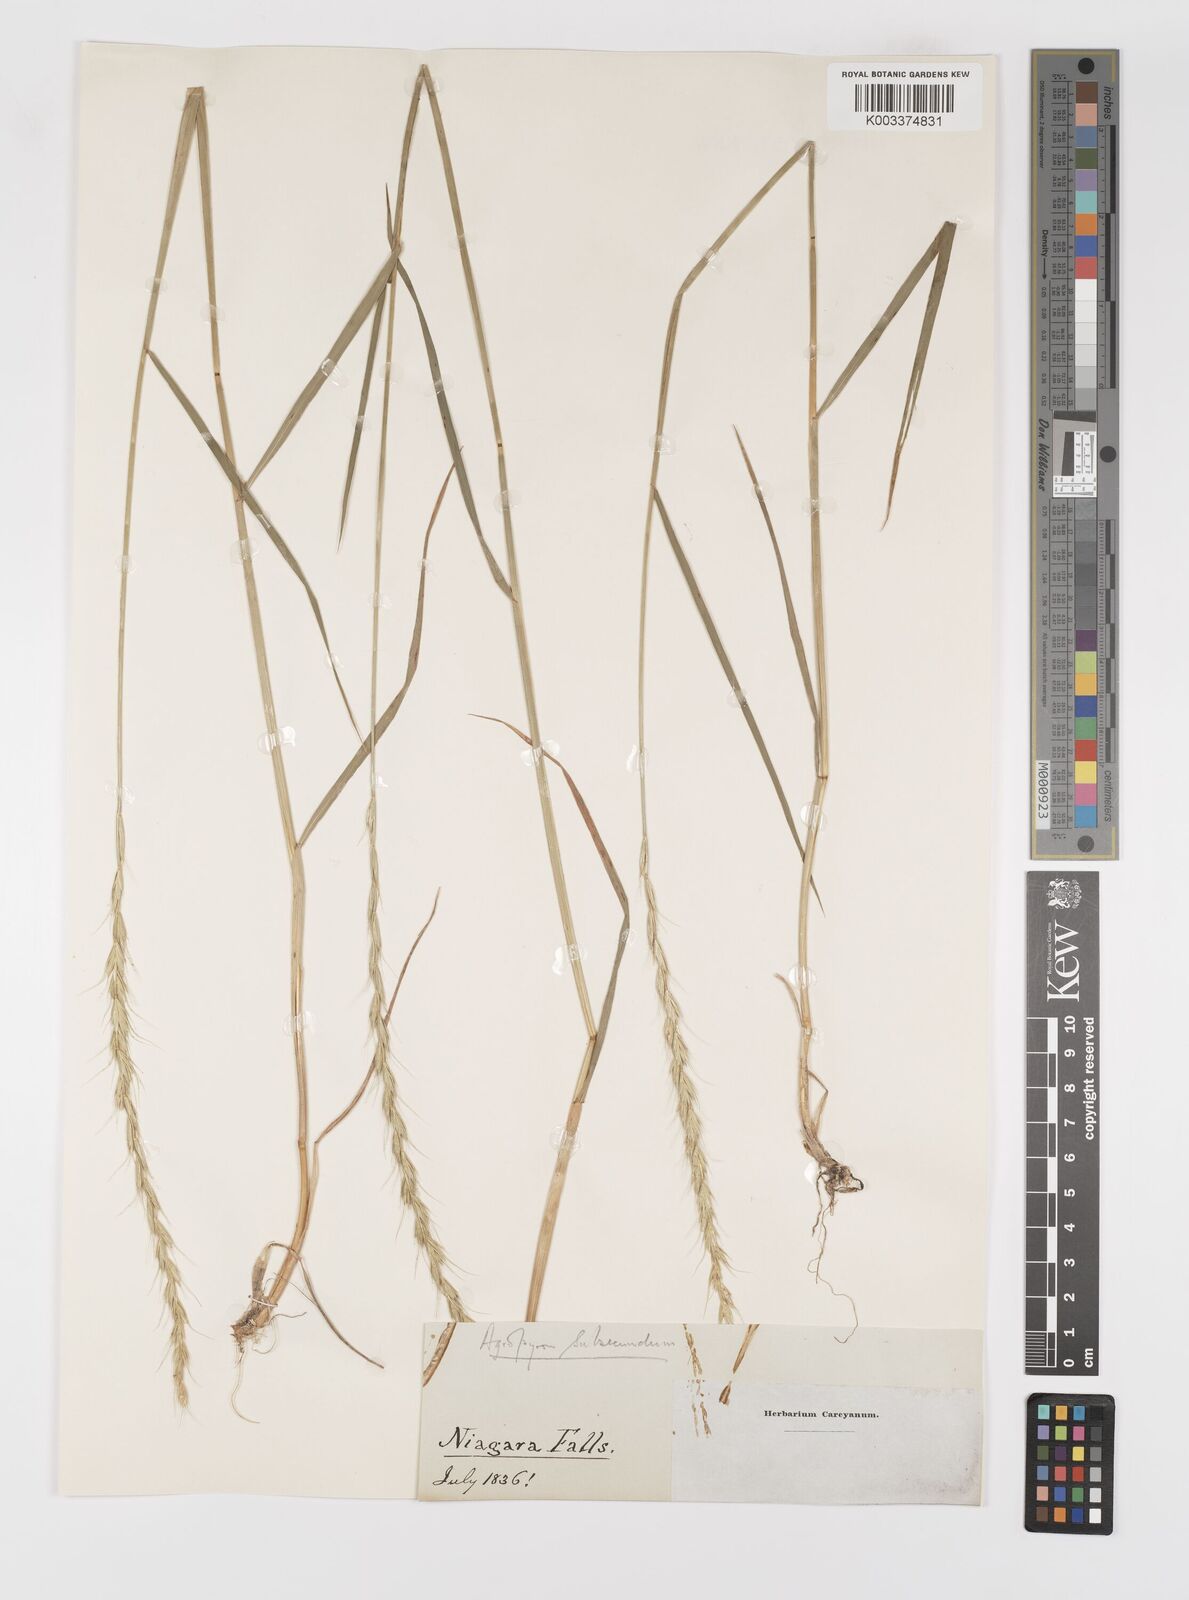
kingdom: Plantae
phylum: Tracheophyta
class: Liliopsida
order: Poales
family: Poaceae
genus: Elymus
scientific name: Elymus violaceus
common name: Arctic wheatgrass
